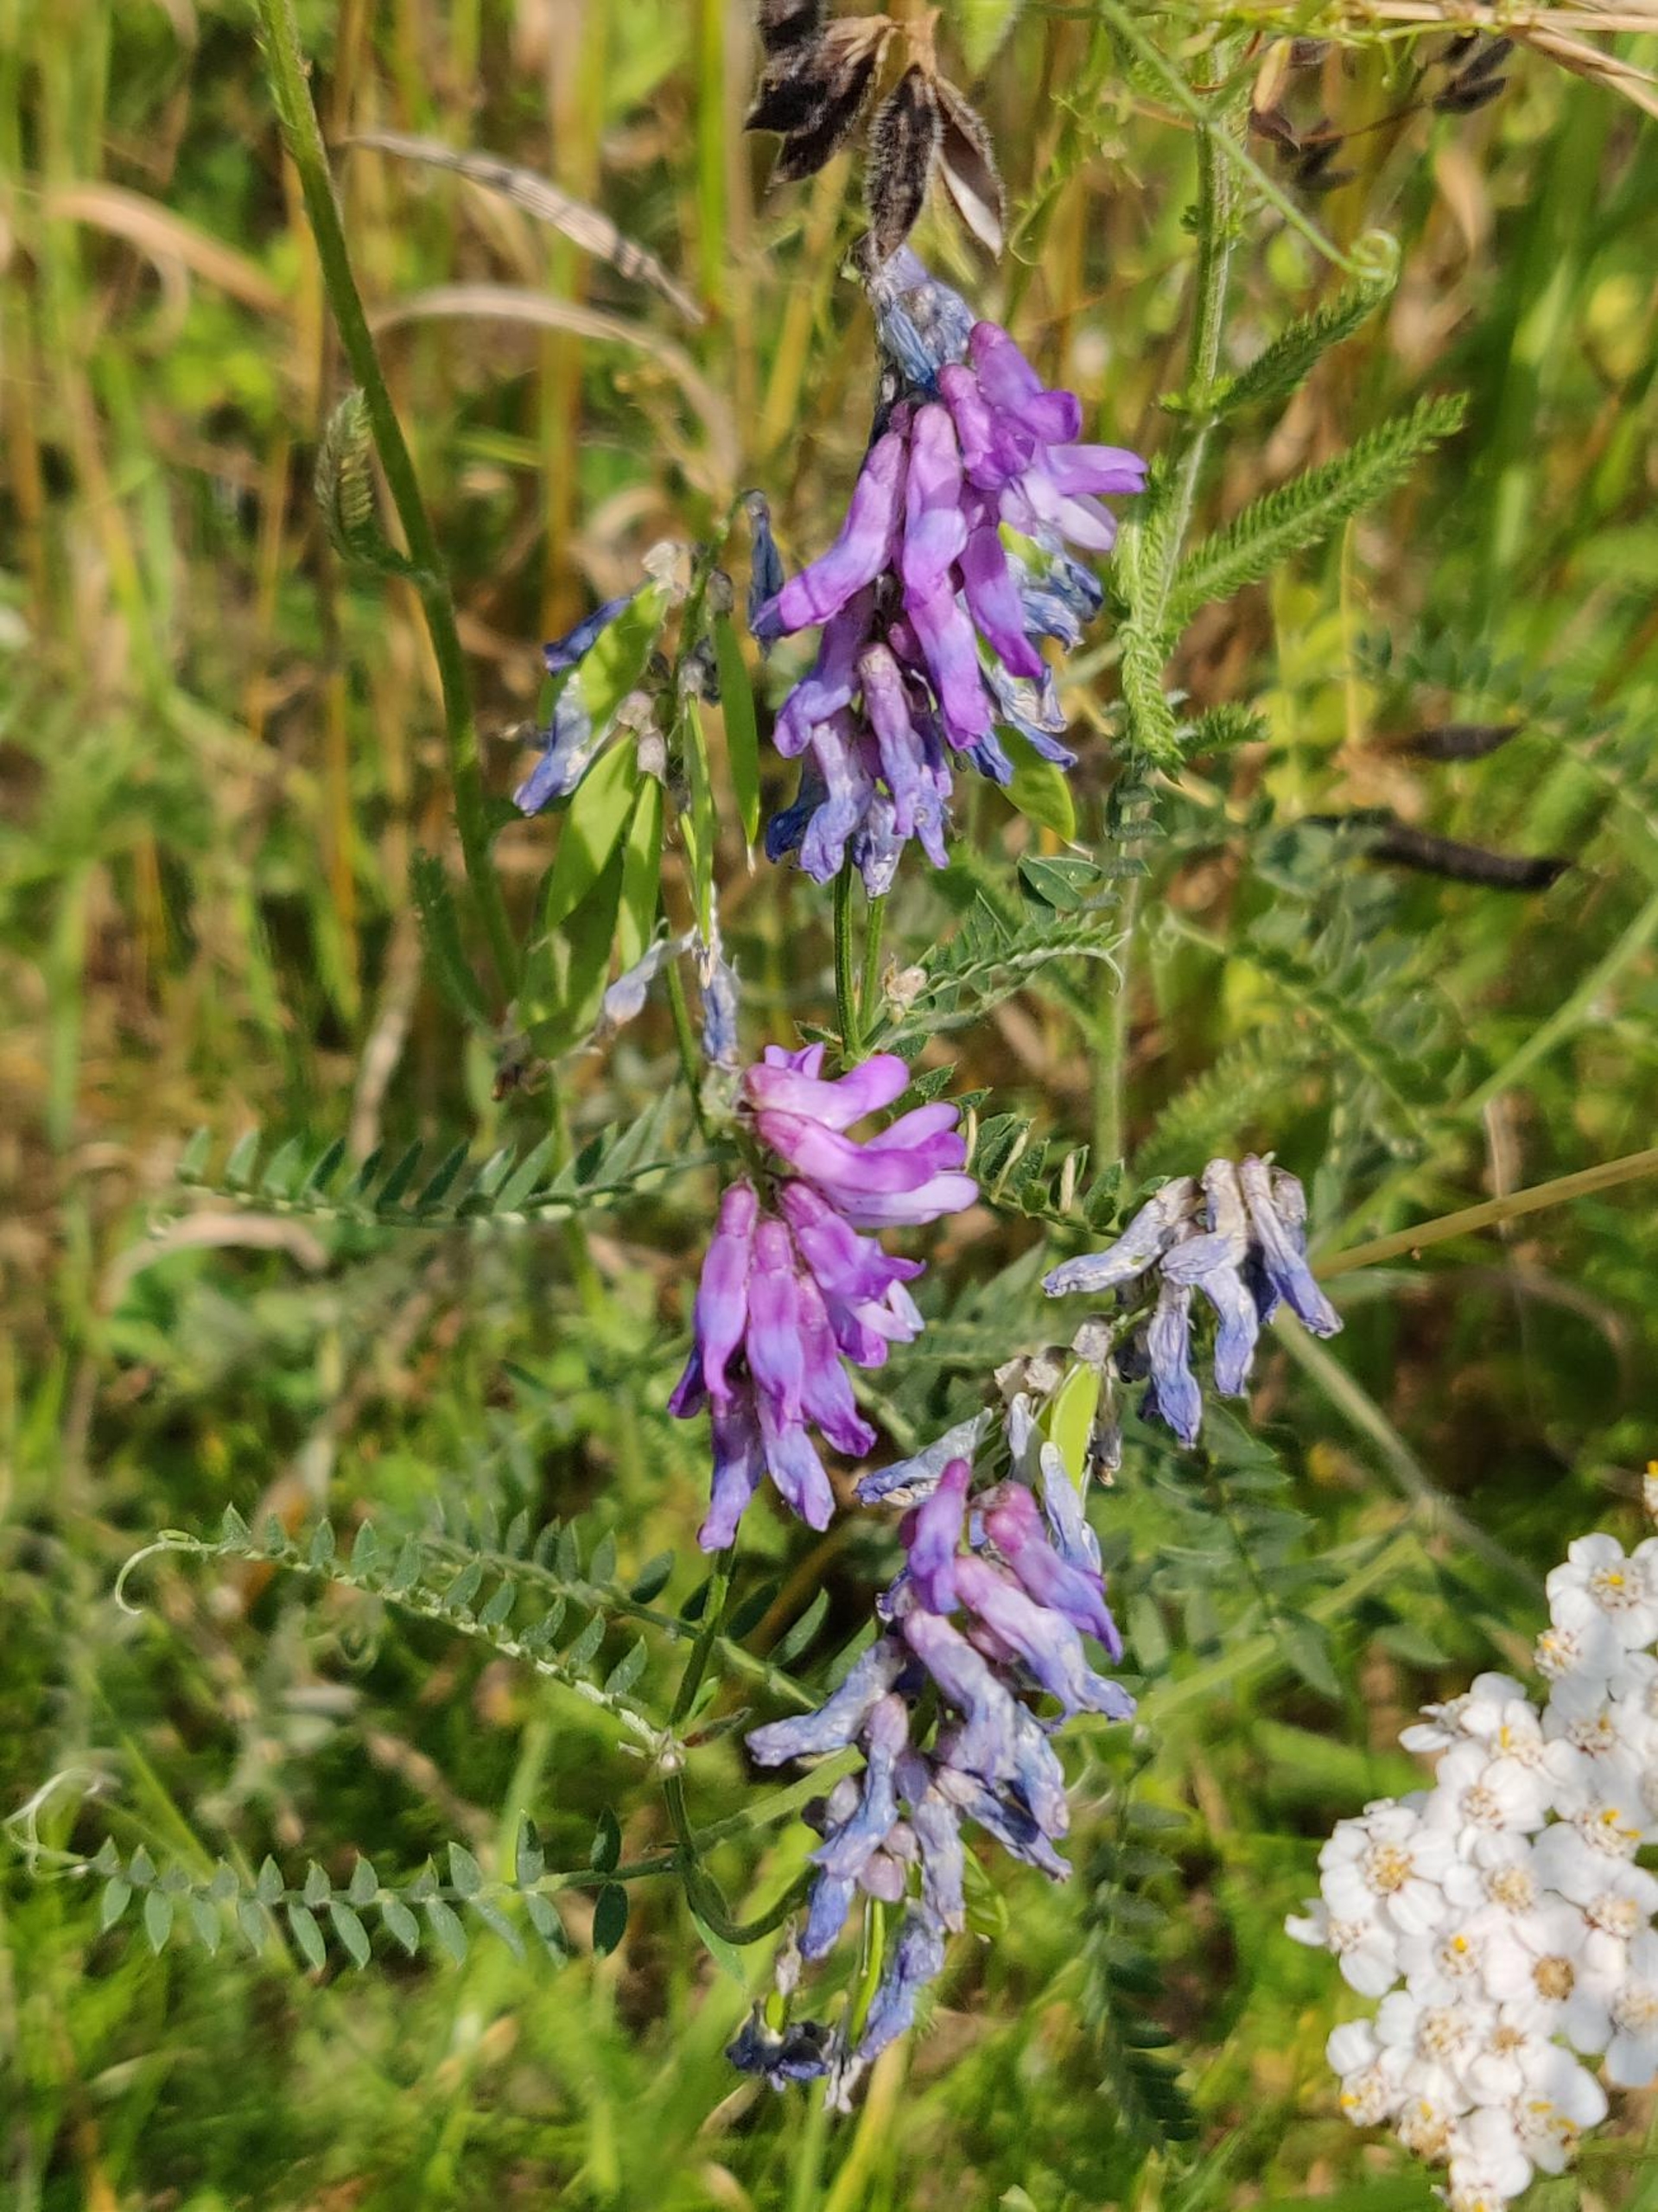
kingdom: Plantae
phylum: Tracheophyta
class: Magnoliopsida
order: Fabales
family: Fabaceae
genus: Vicia
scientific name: Vicia cracca
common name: Muse-vikke
